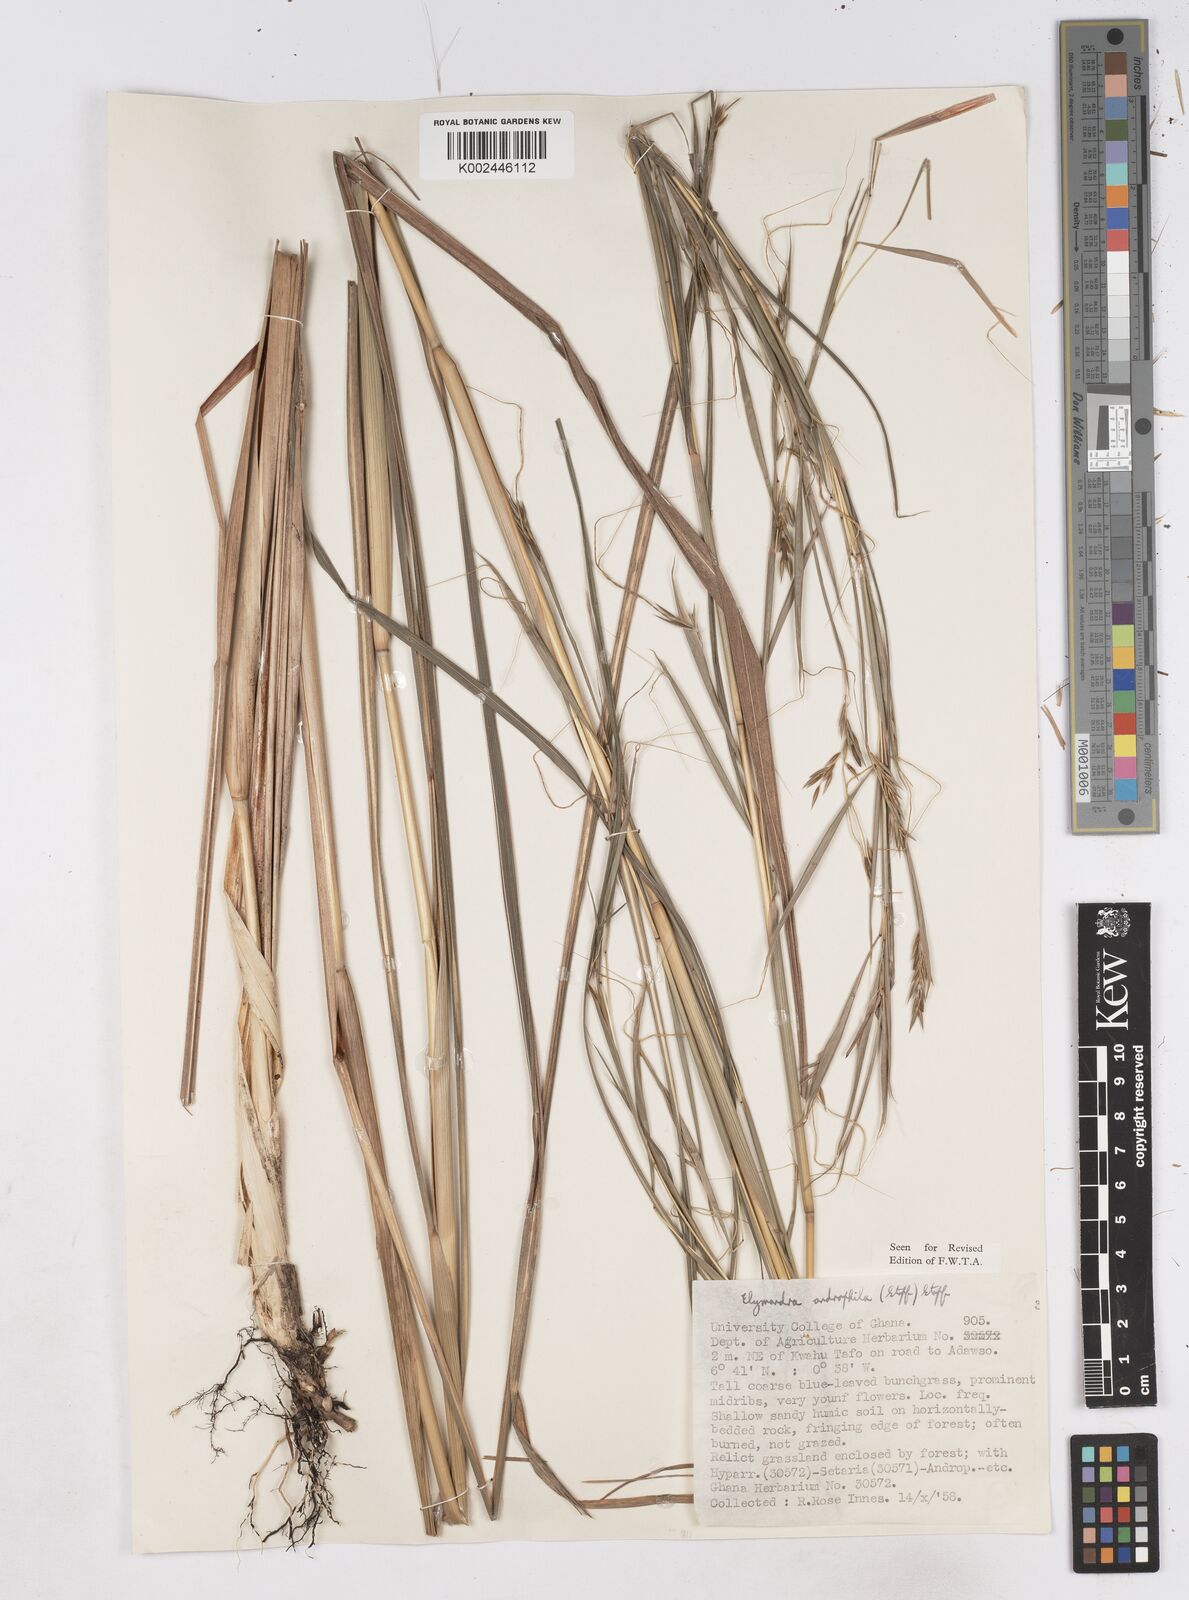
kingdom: Plantae
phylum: Tracheophyta
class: Liliopsida
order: Poales
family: Poaceae
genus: Elymandra
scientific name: Elymandra androphila
